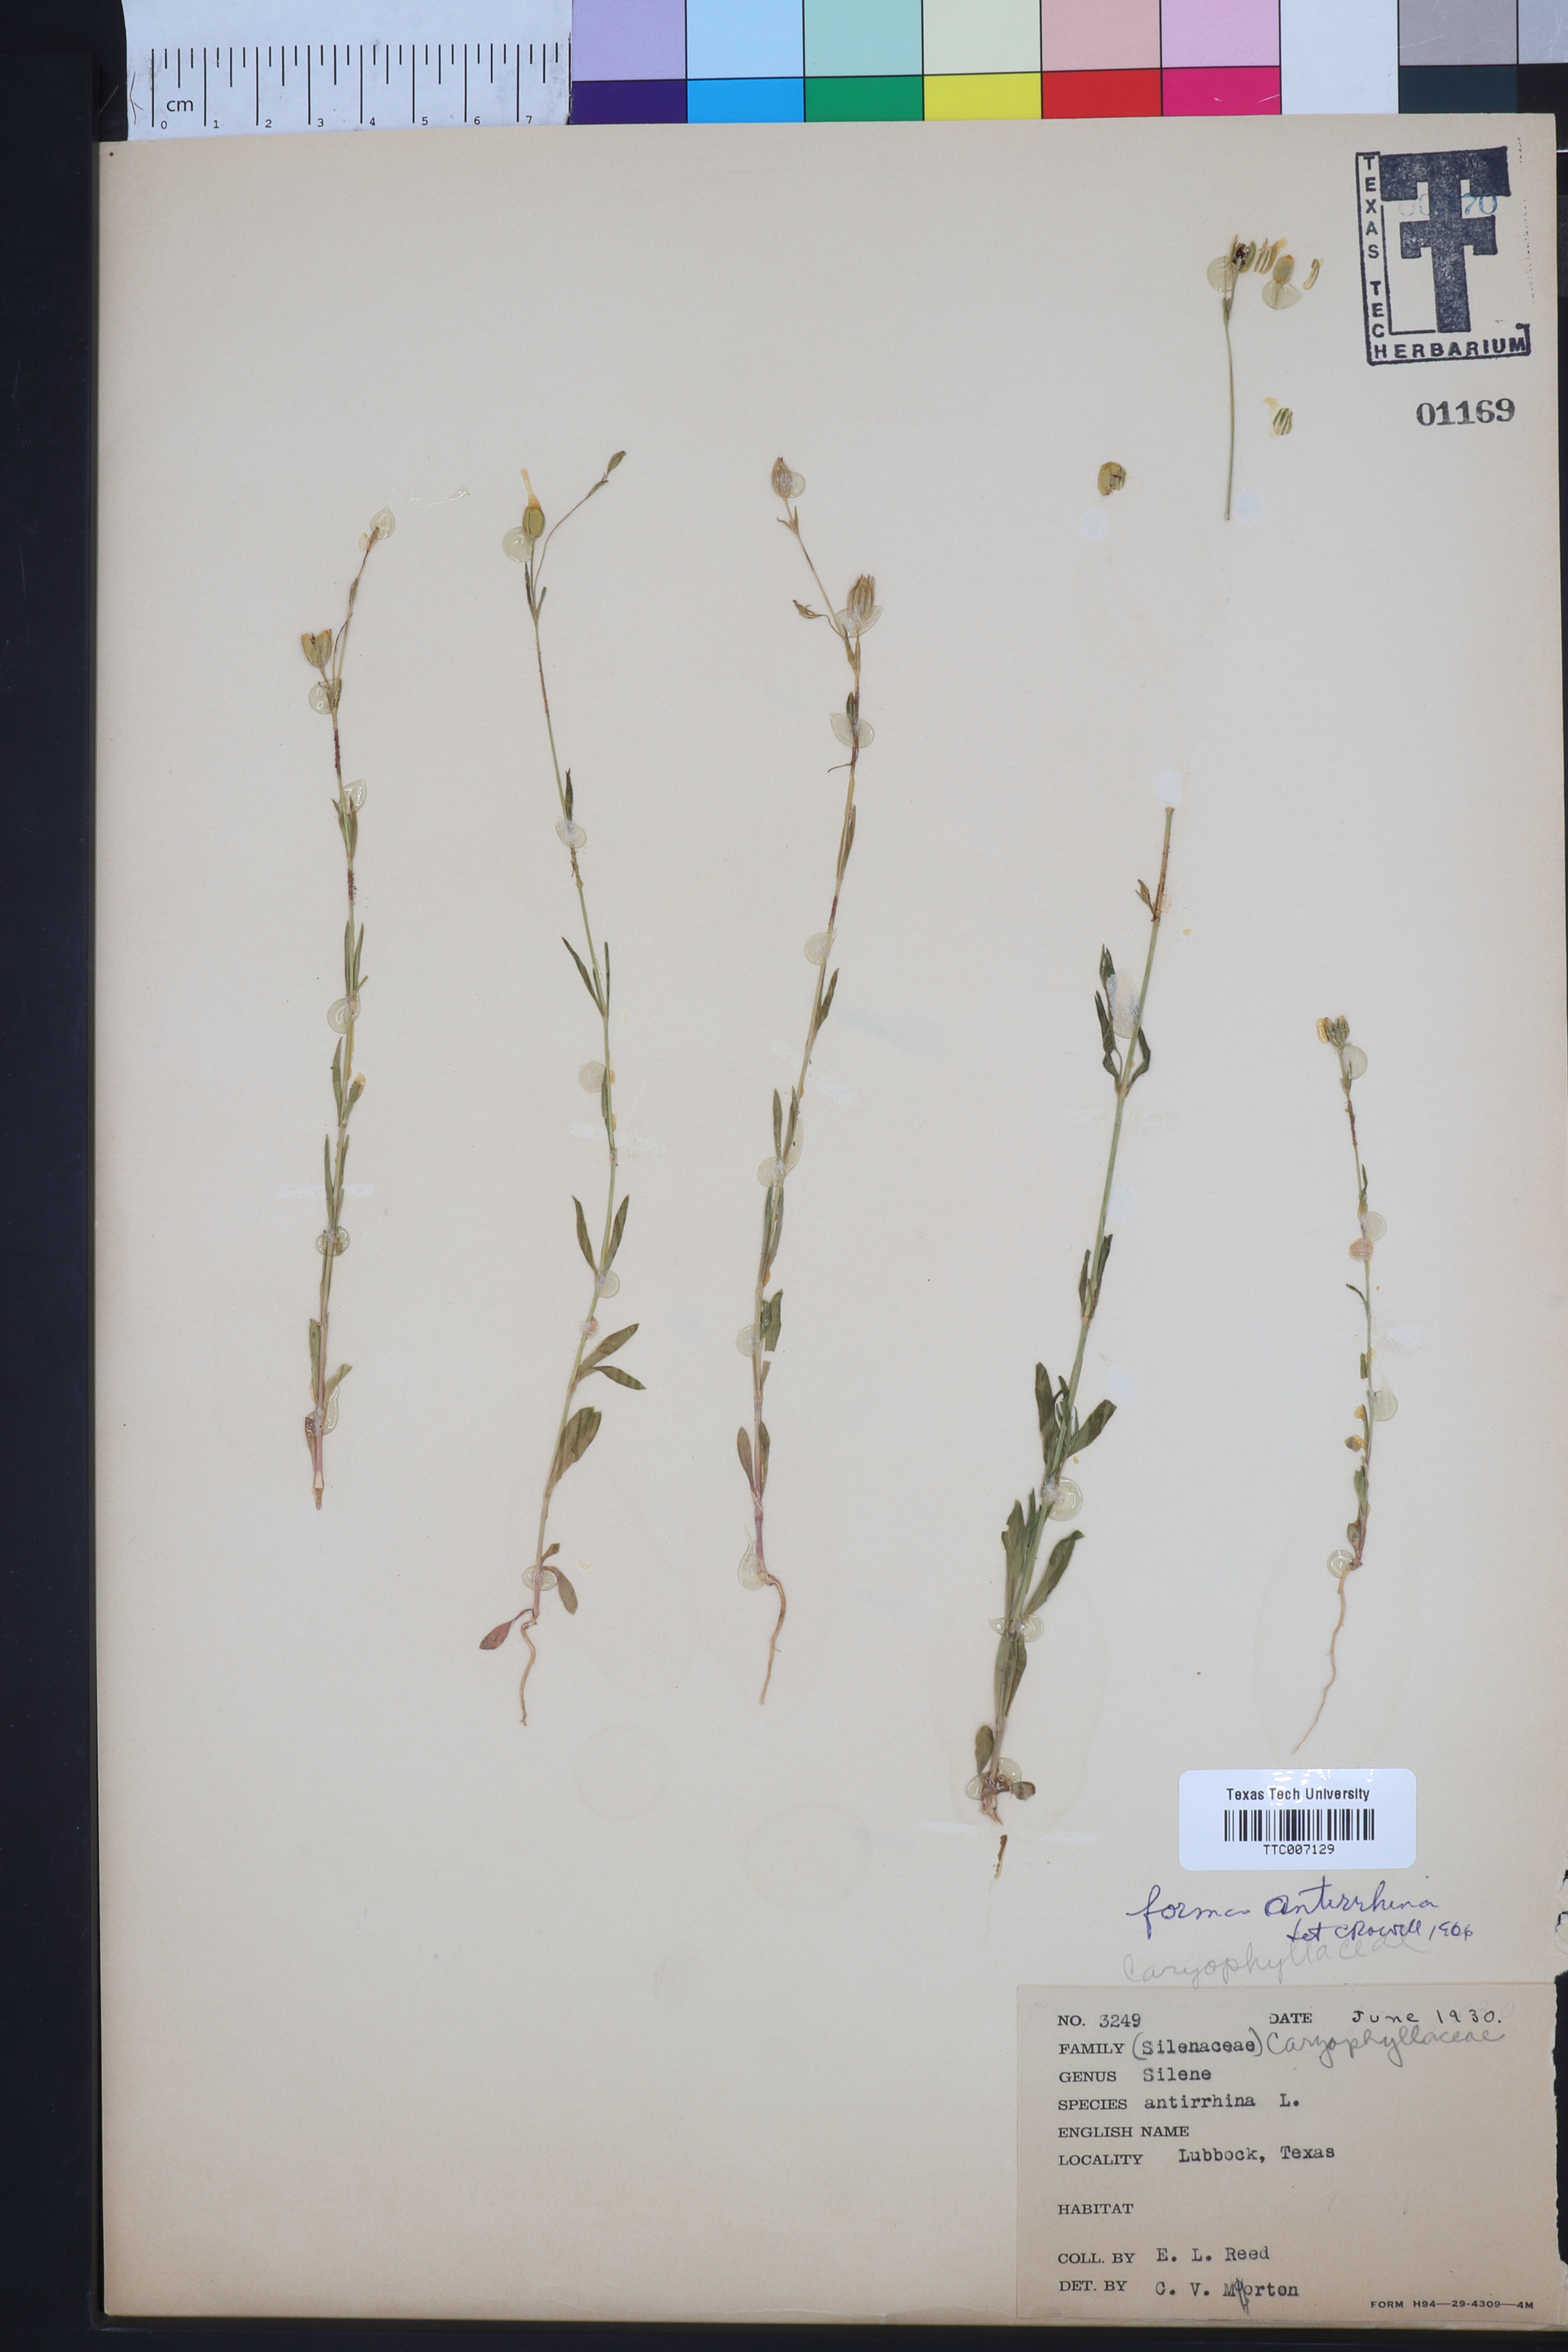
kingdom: Plantae
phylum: Tracheophyta
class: Magnoliopsida
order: Caryophyllales
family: Caryophyllaceae
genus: Silene
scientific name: Silene antirrhina
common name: Sleepy catchfly
